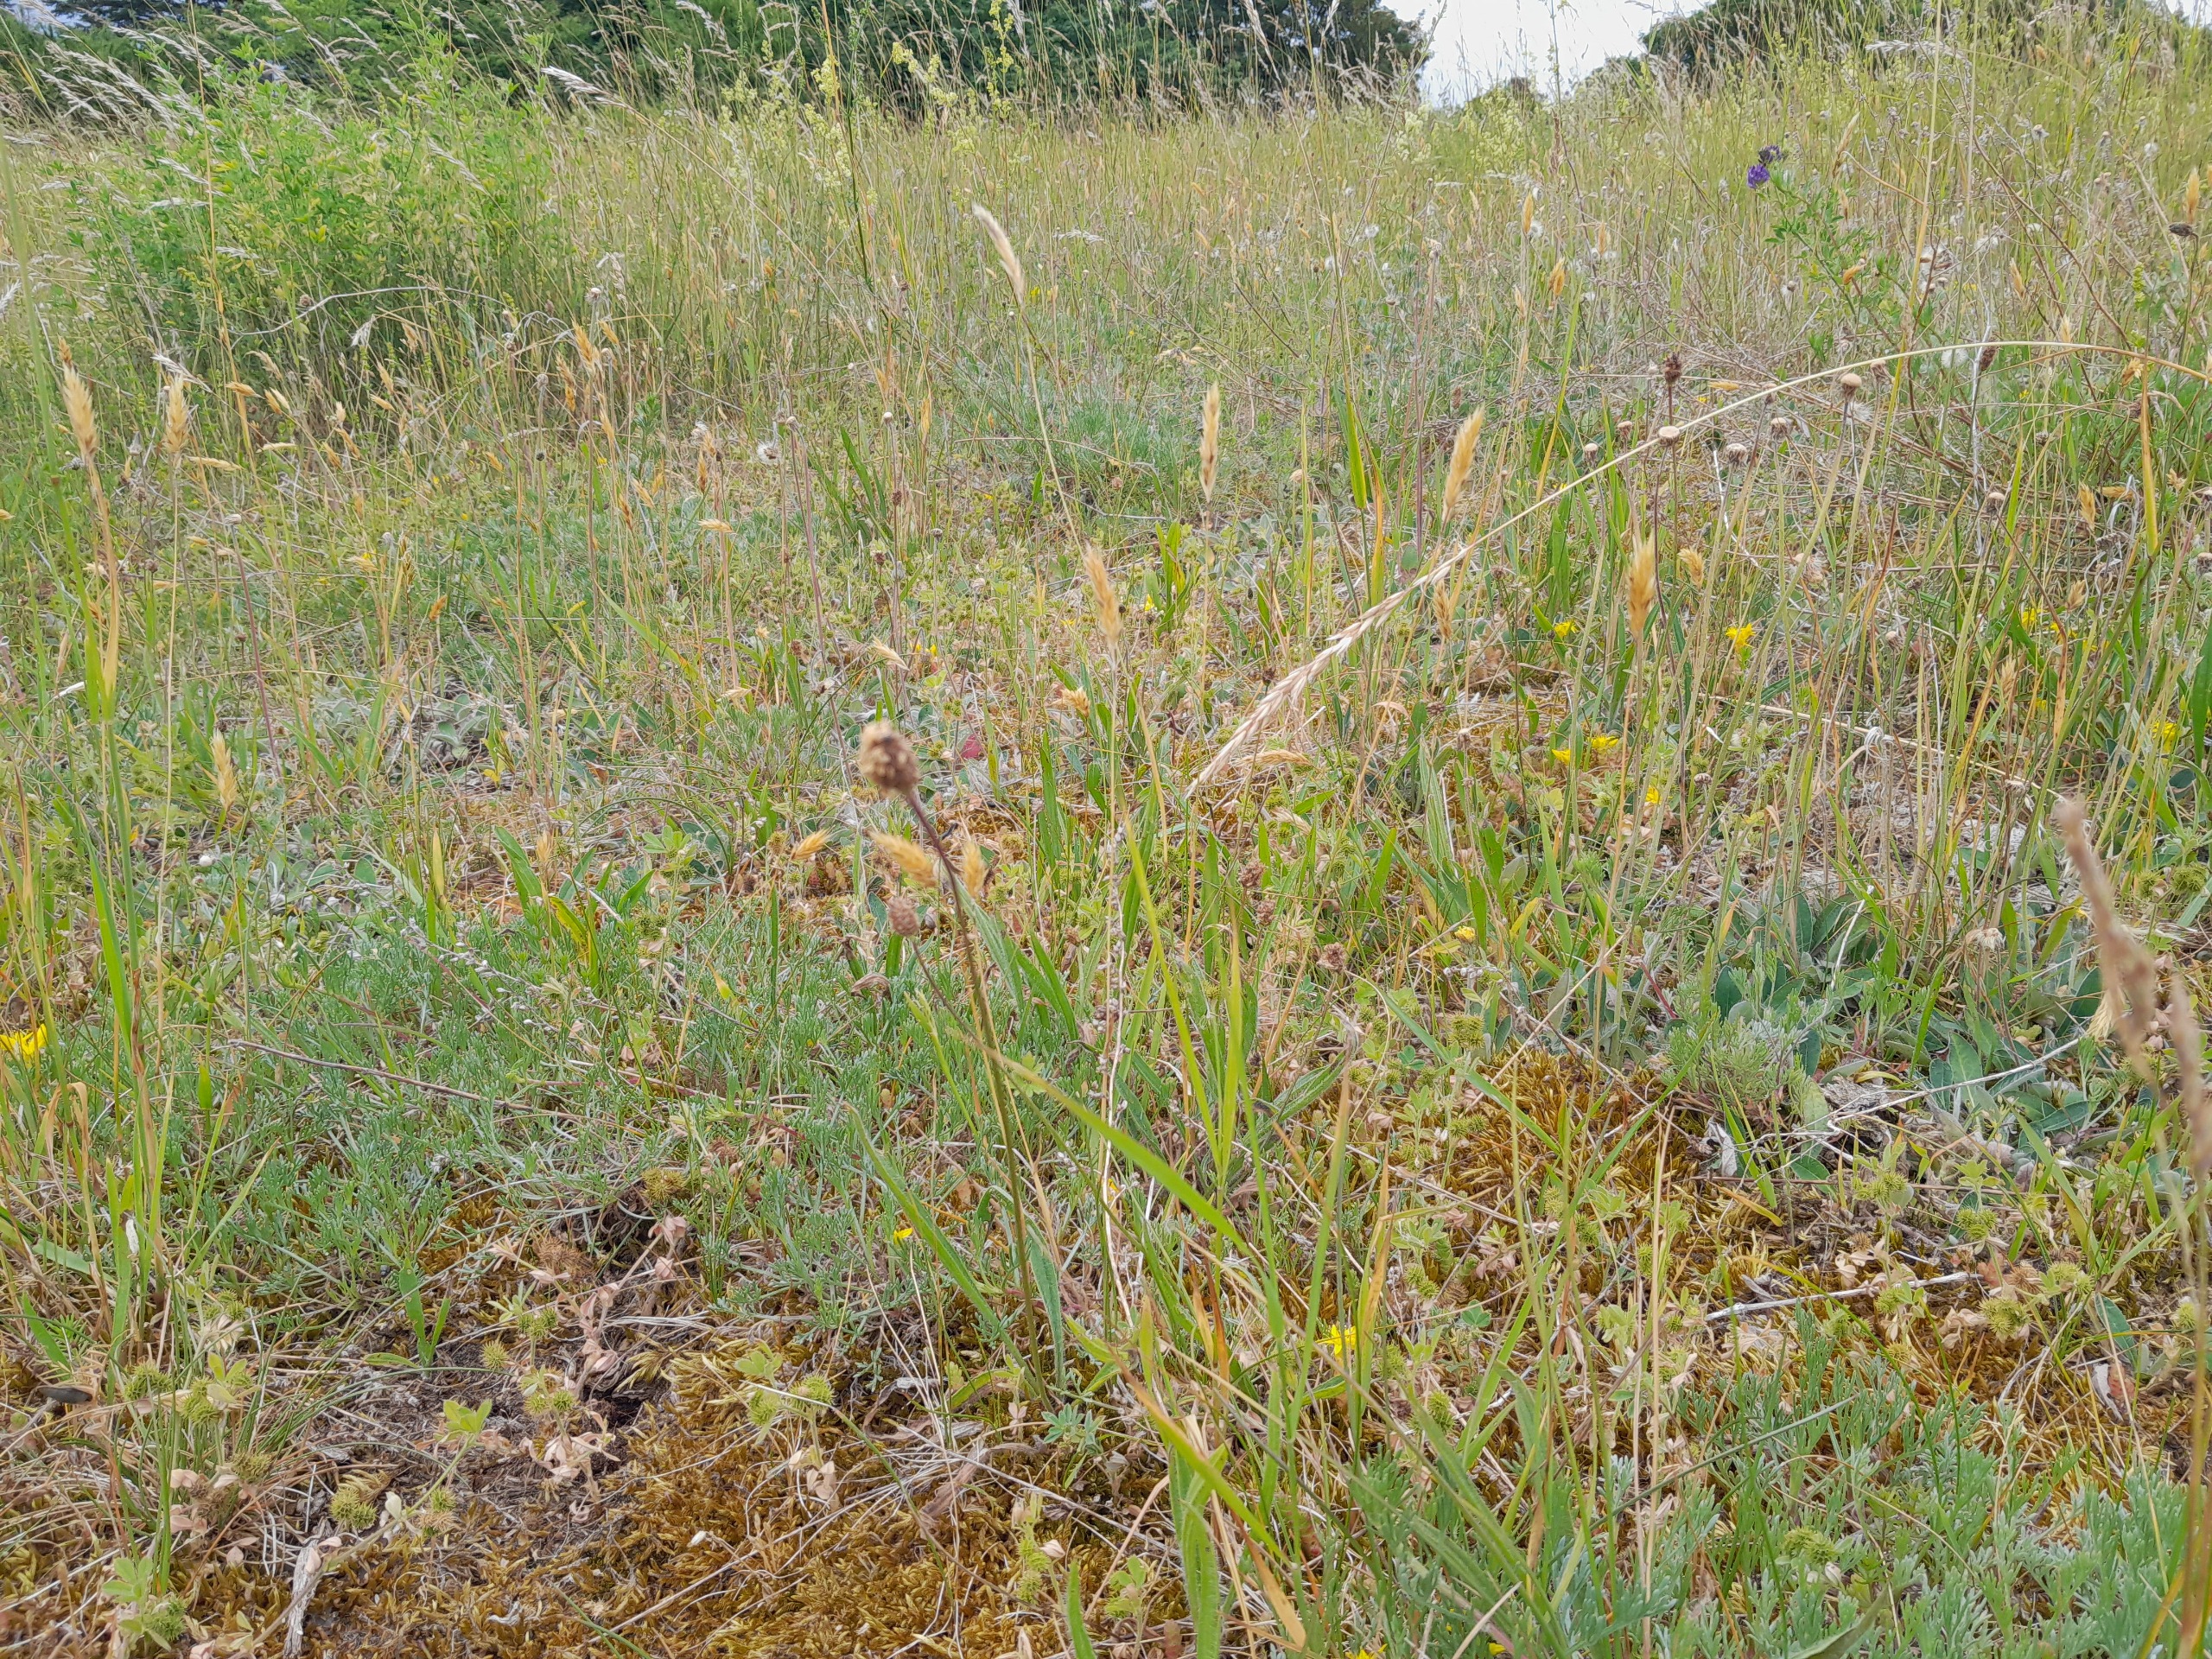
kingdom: Plantae
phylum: Tracheophyta
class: Magnoliopsida
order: Fabales
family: Fabaceae
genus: Medicago
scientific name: Medicago minima
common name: Liden sneglebælg
